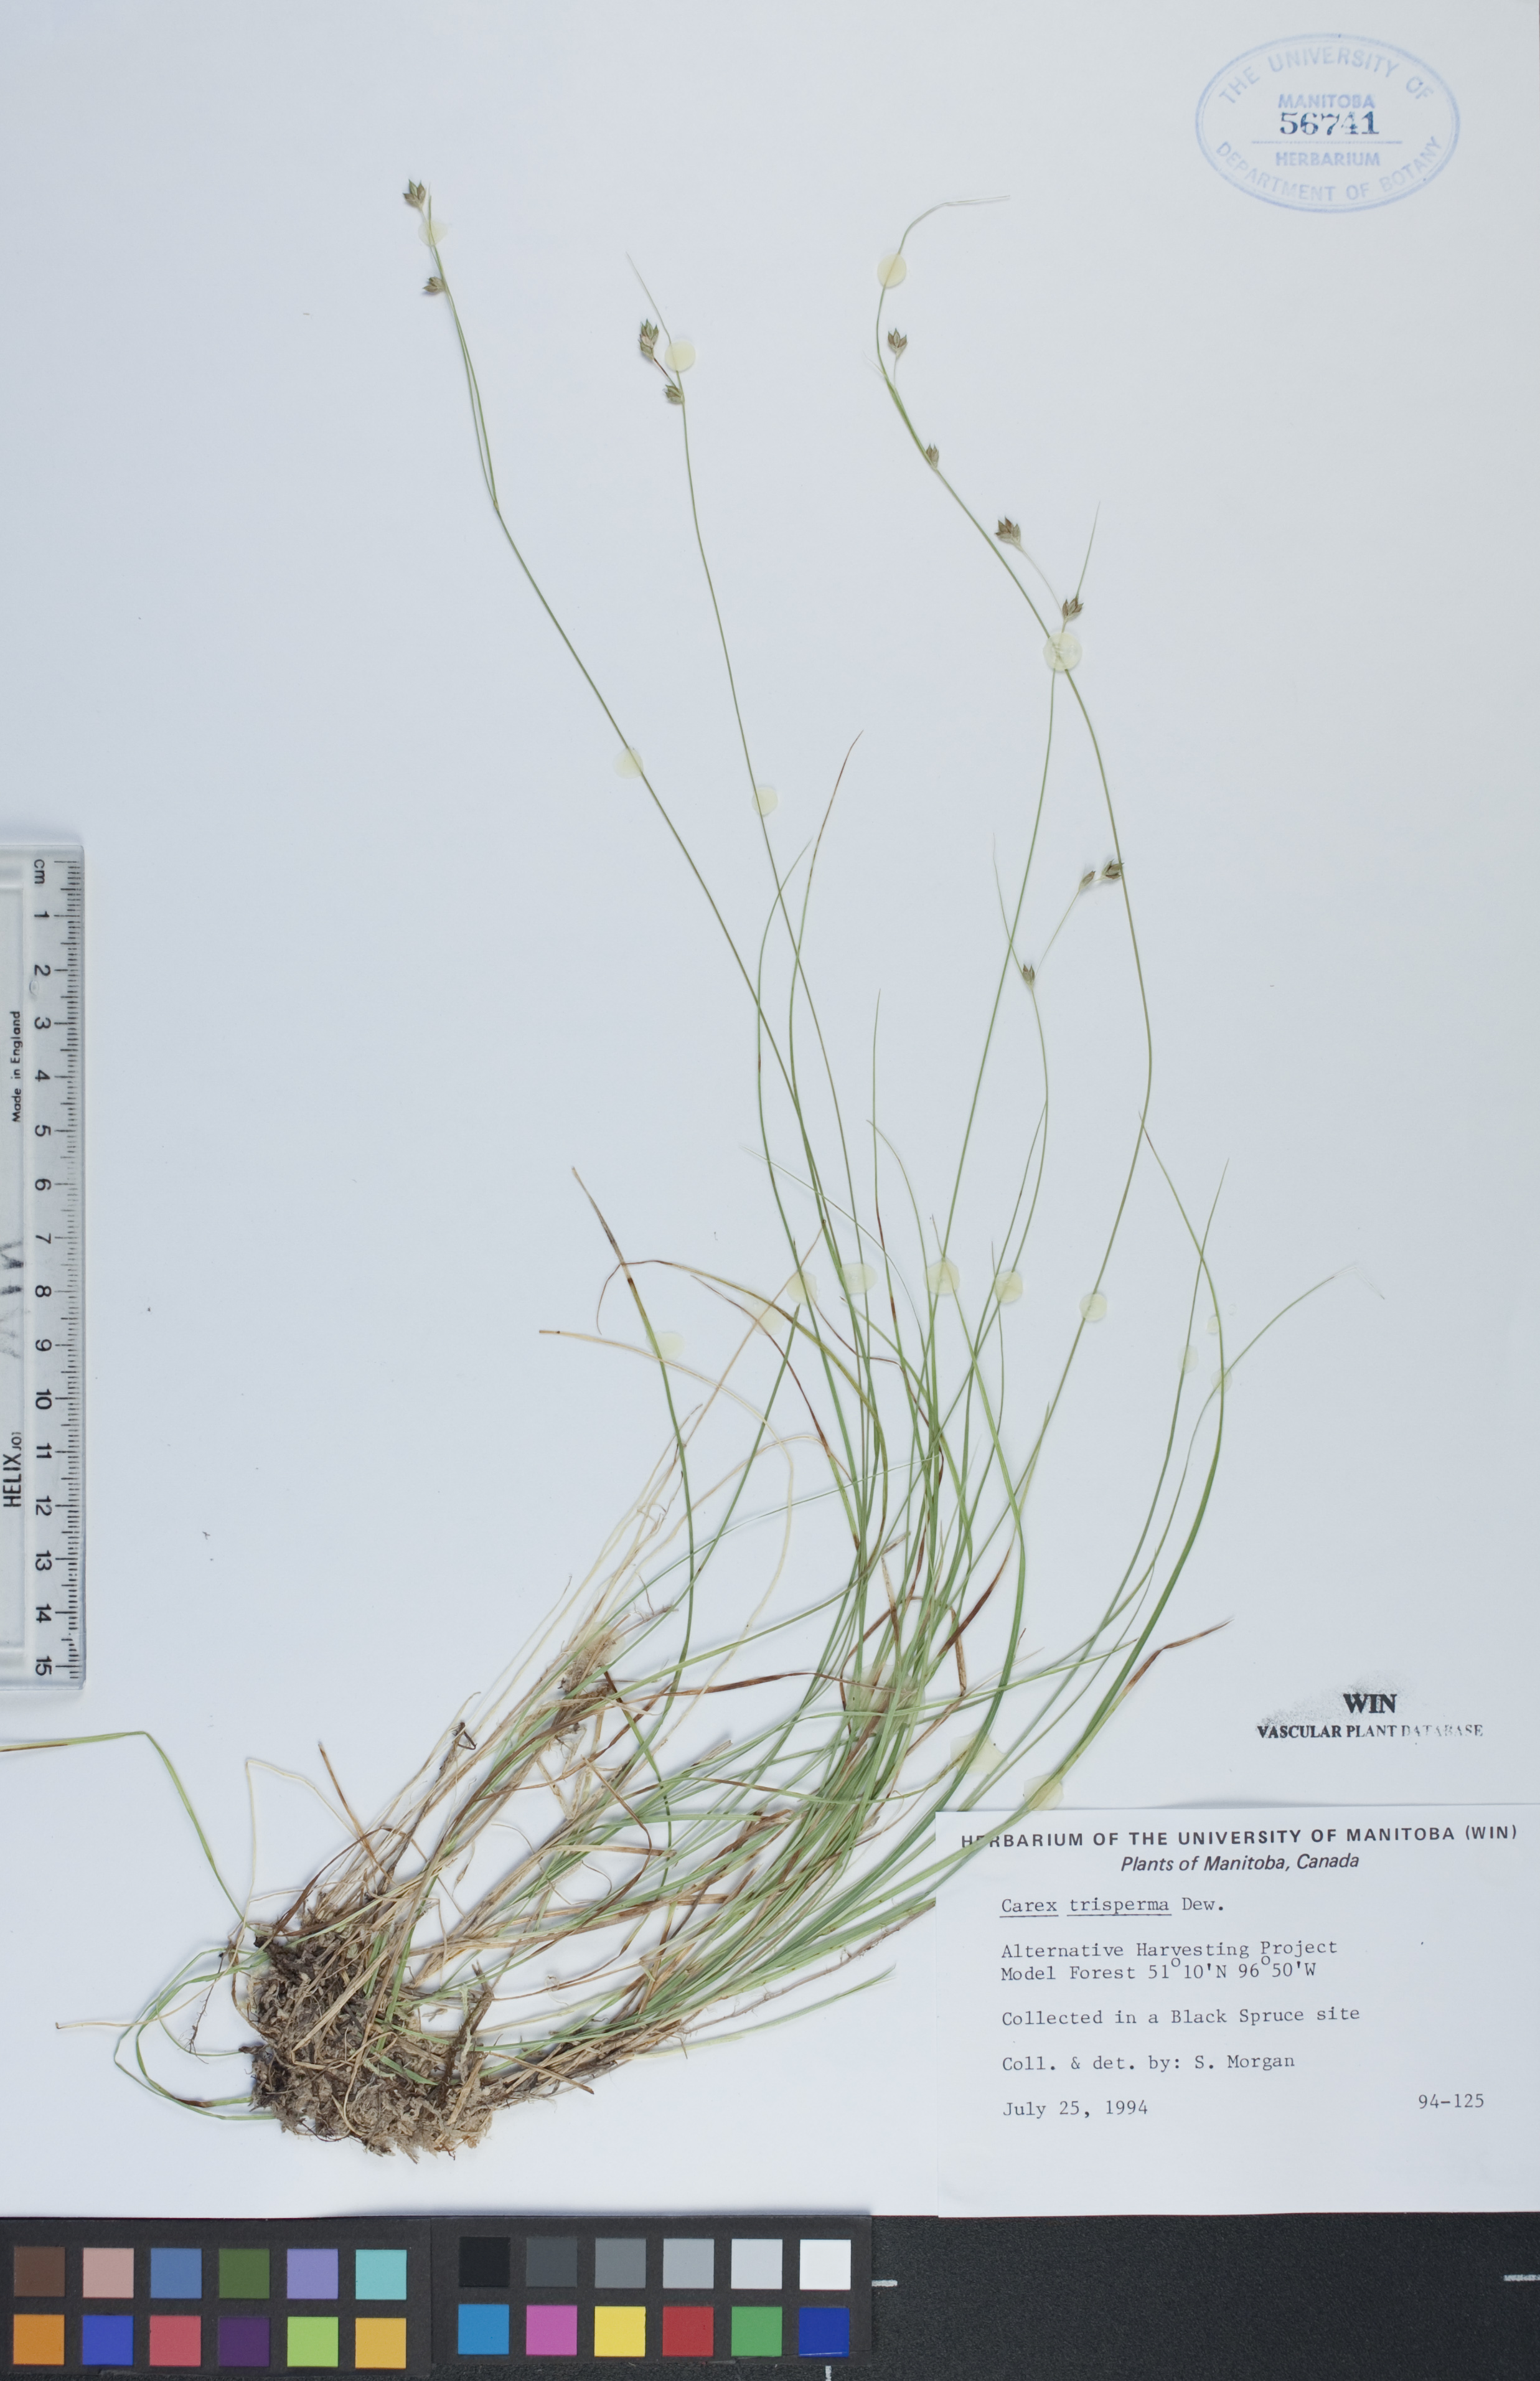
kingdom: Plantae
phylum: Tracheophyta
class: Liliopsida
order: Poales
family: Cyperaceae
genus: Carex
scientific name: Carex trisperma
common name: Three-seeded sedge
